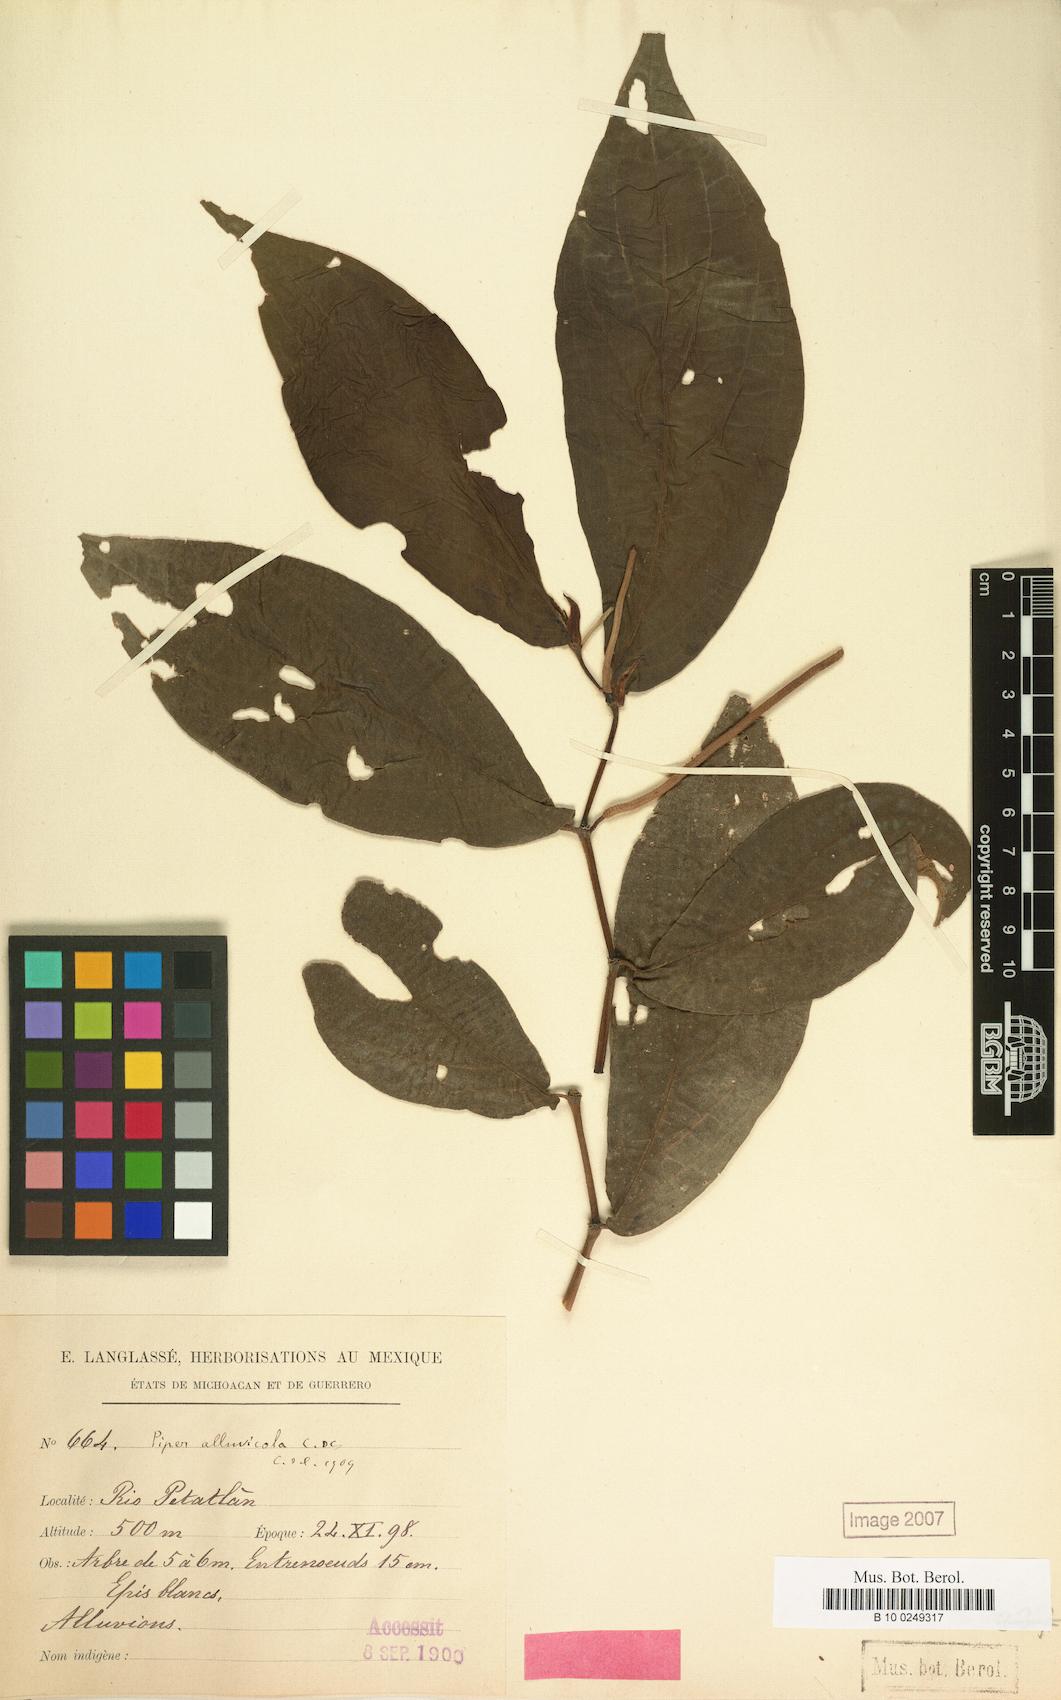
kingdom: Plantae
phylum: Tracheophyta
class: Magnoliopsida
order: Piperales
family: Piperaceae
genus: Piper
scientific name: Piper hispidum
